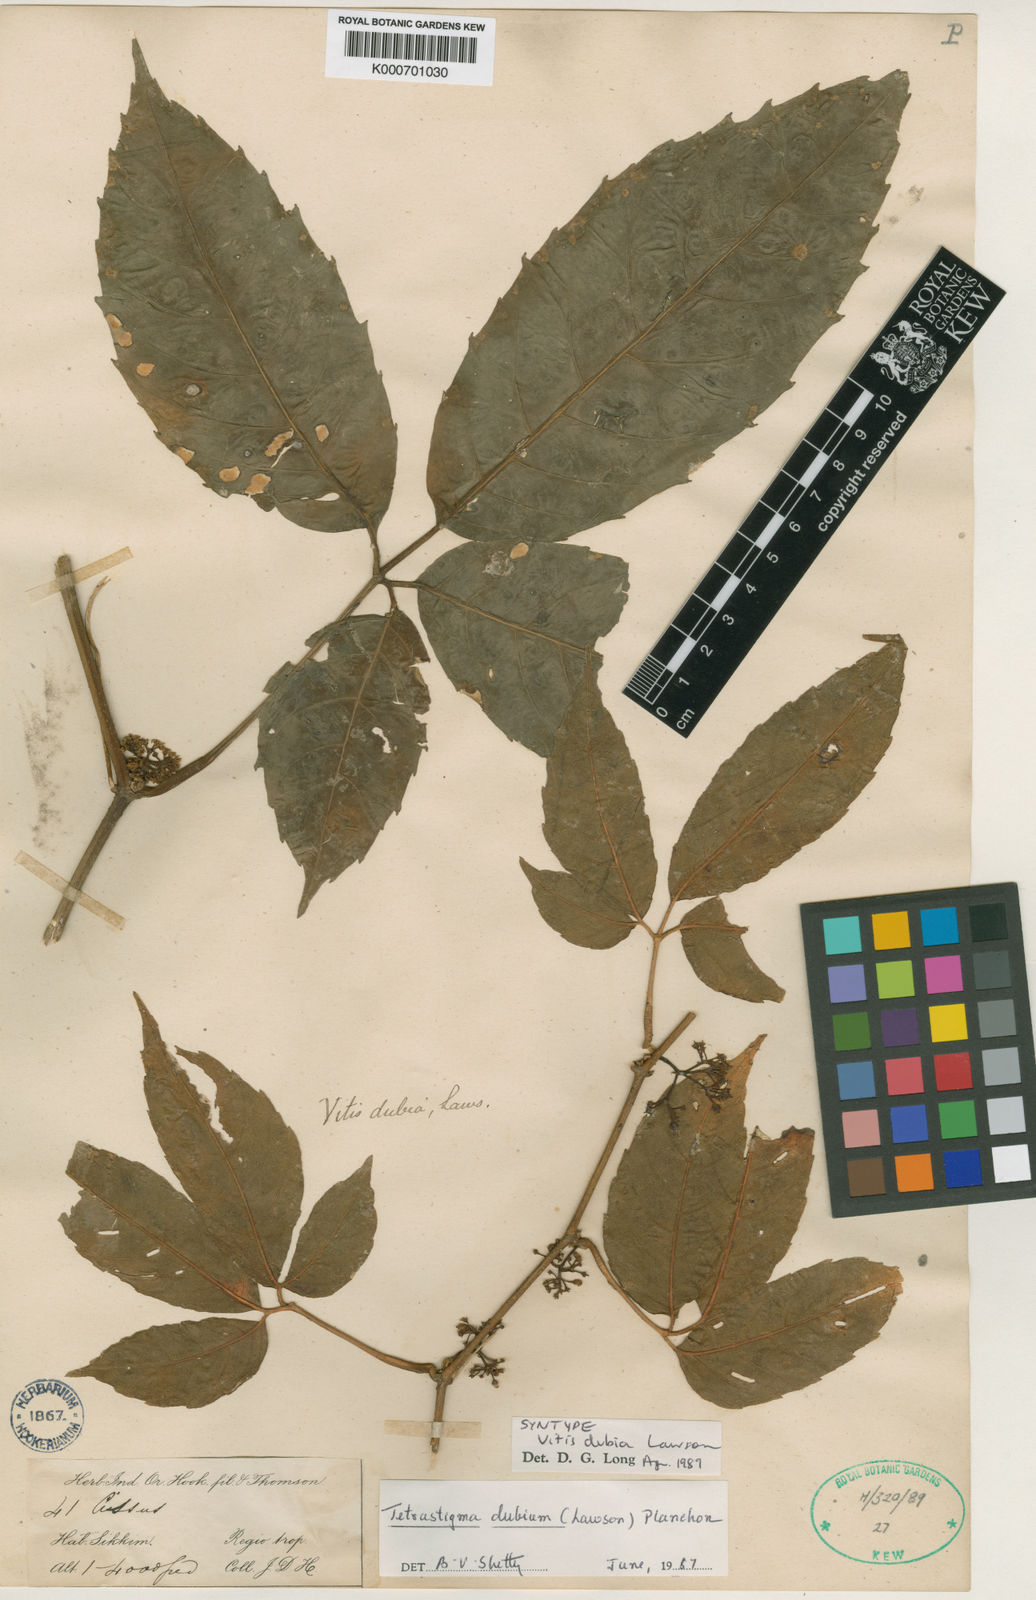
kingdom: Plantae
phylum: Tracheophyta
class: Magnoliopsida
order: Vitales
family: Vitaceae
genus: Tetrastigma
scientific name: Tetrastigma dubium
